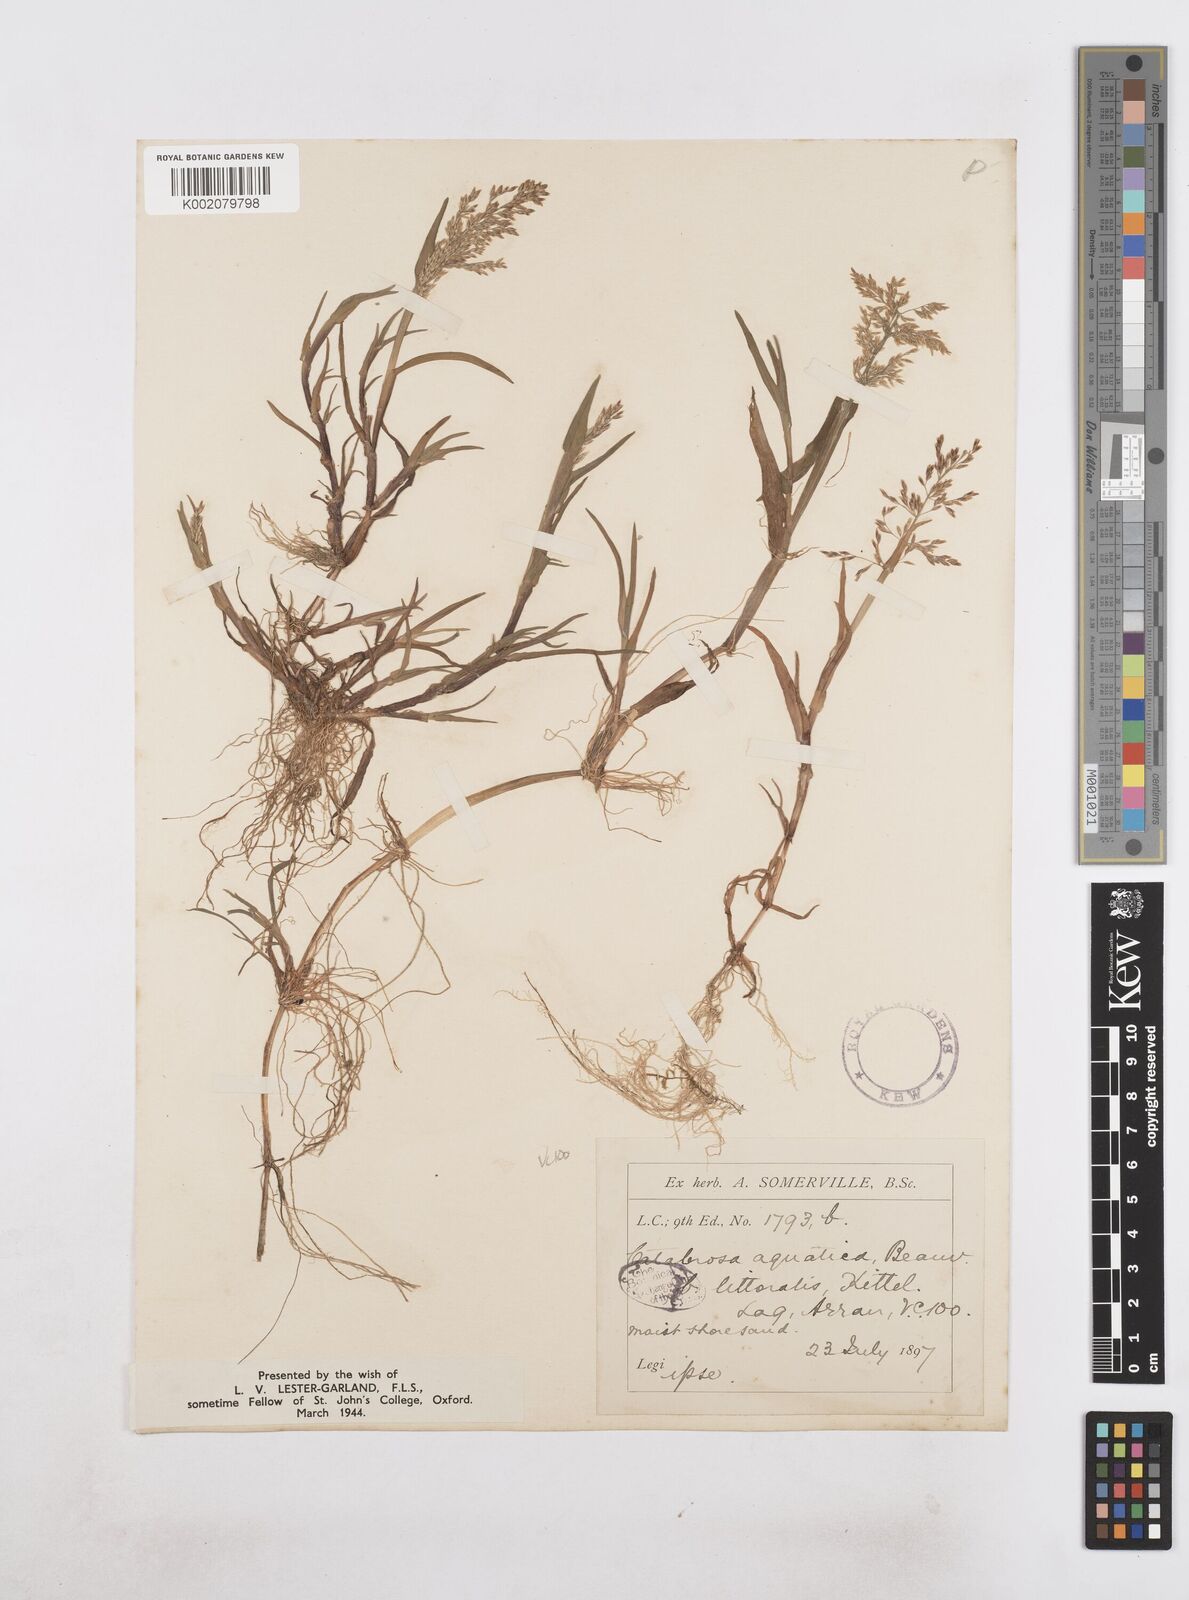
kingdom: Plantae
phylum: Tracheophyta
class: Liliopsida
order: Poales
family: Poaceae
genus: Catabrosa
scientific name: Catabrosa aquatica
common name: Whorl-grass
